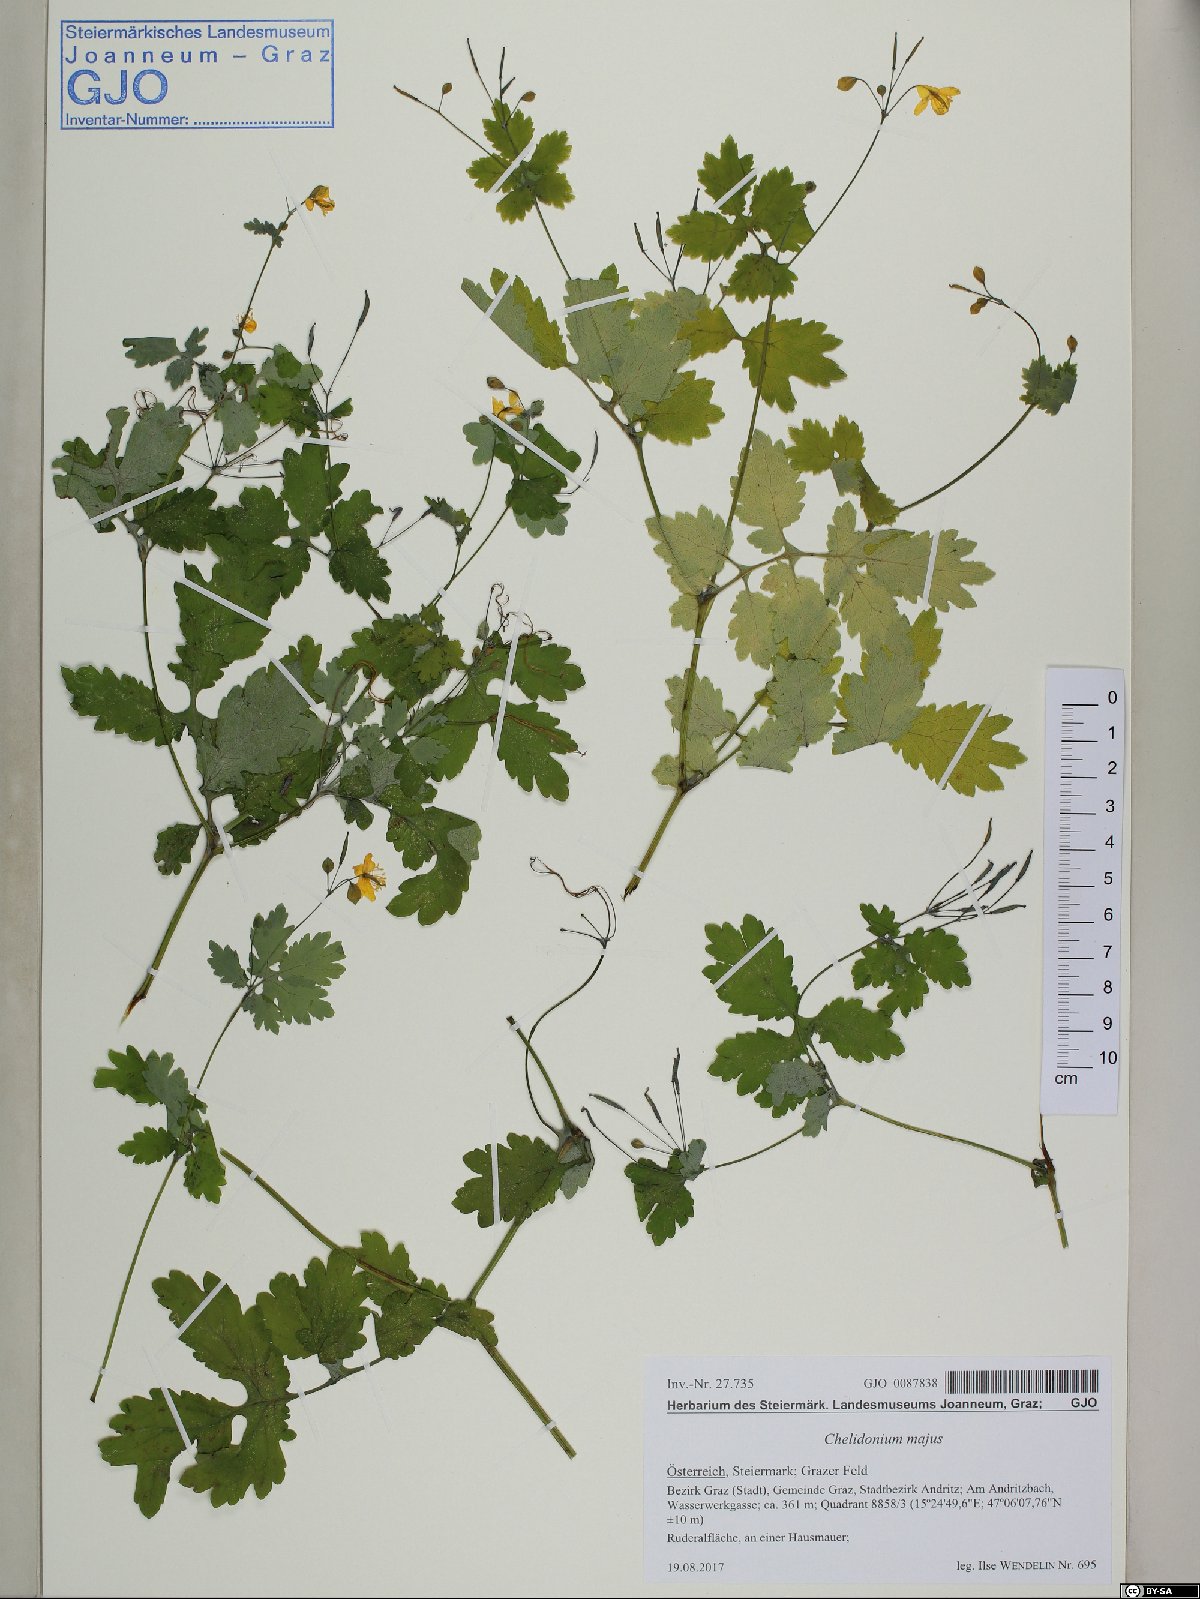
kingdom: Plantae
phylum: Tracheophyta
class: Magnoliopsida
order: Ranunculales
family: Papaveraceae
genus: Chelidonium
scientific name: Chelidonium majus
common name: Greater celandine
